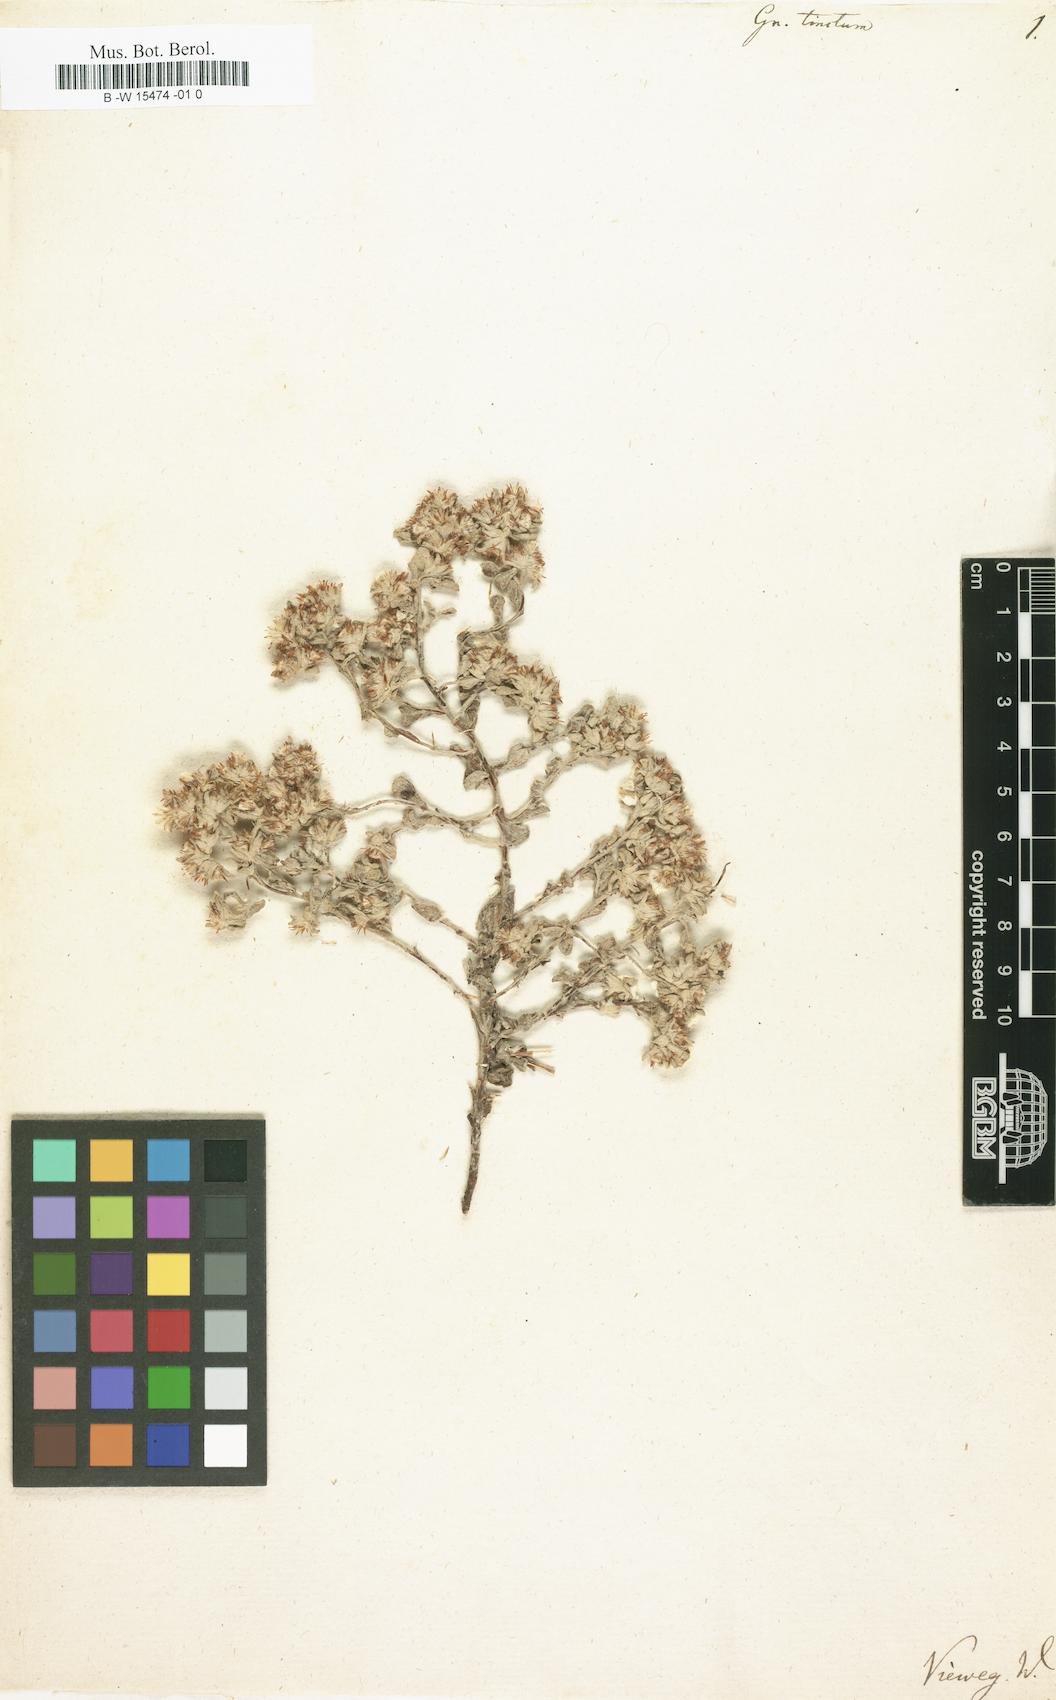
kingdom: Plantae
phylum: Tracheophyta
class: Magnoliopsida
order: Asterales
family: Asteraceae
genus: Helichrysum
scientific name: Helichrysum tinctum
